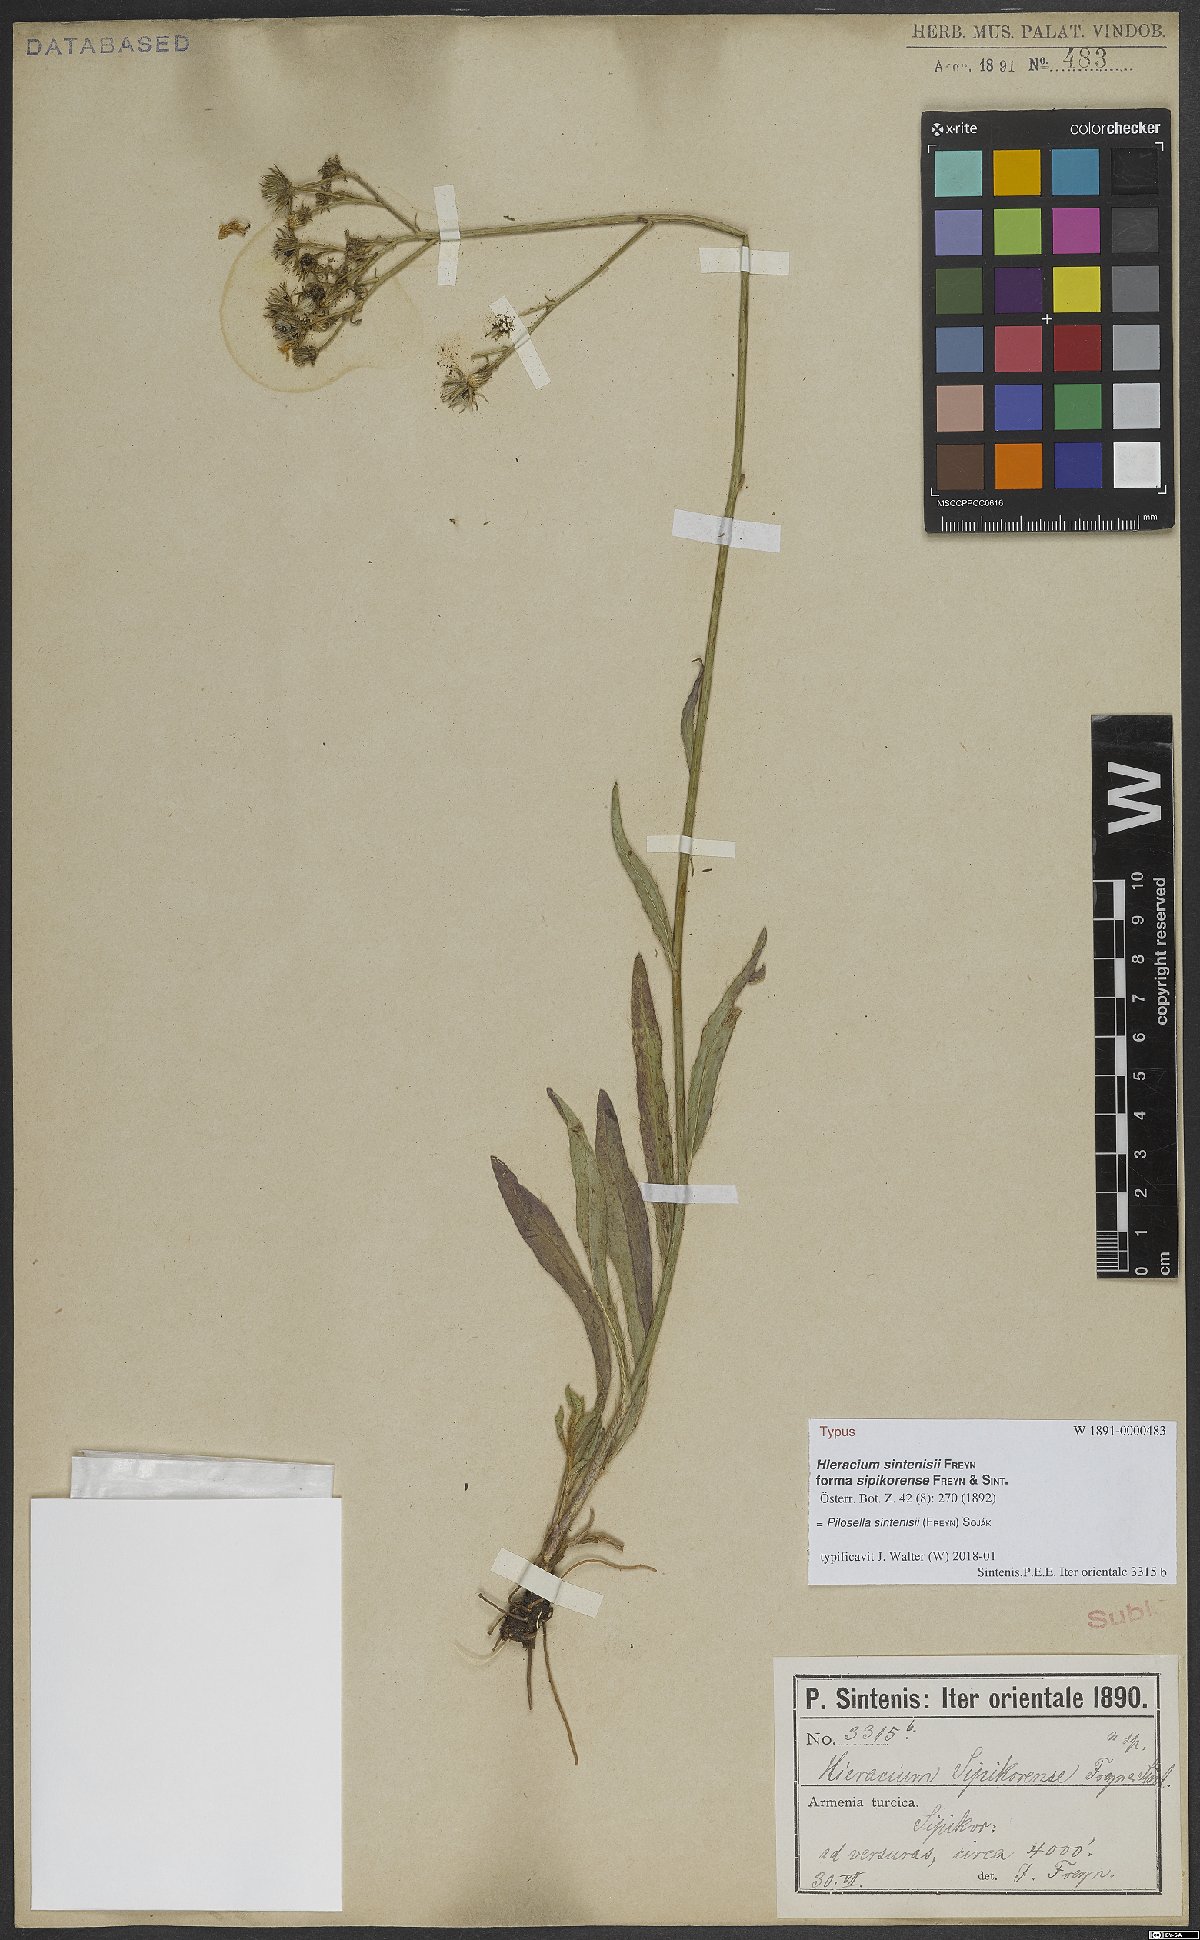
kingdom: Plantae
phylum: Tracheophyta
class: Magnoliopsida
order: Asterales
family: Asteraceae
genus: Pilosella
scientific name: Pilosella sintenisii
